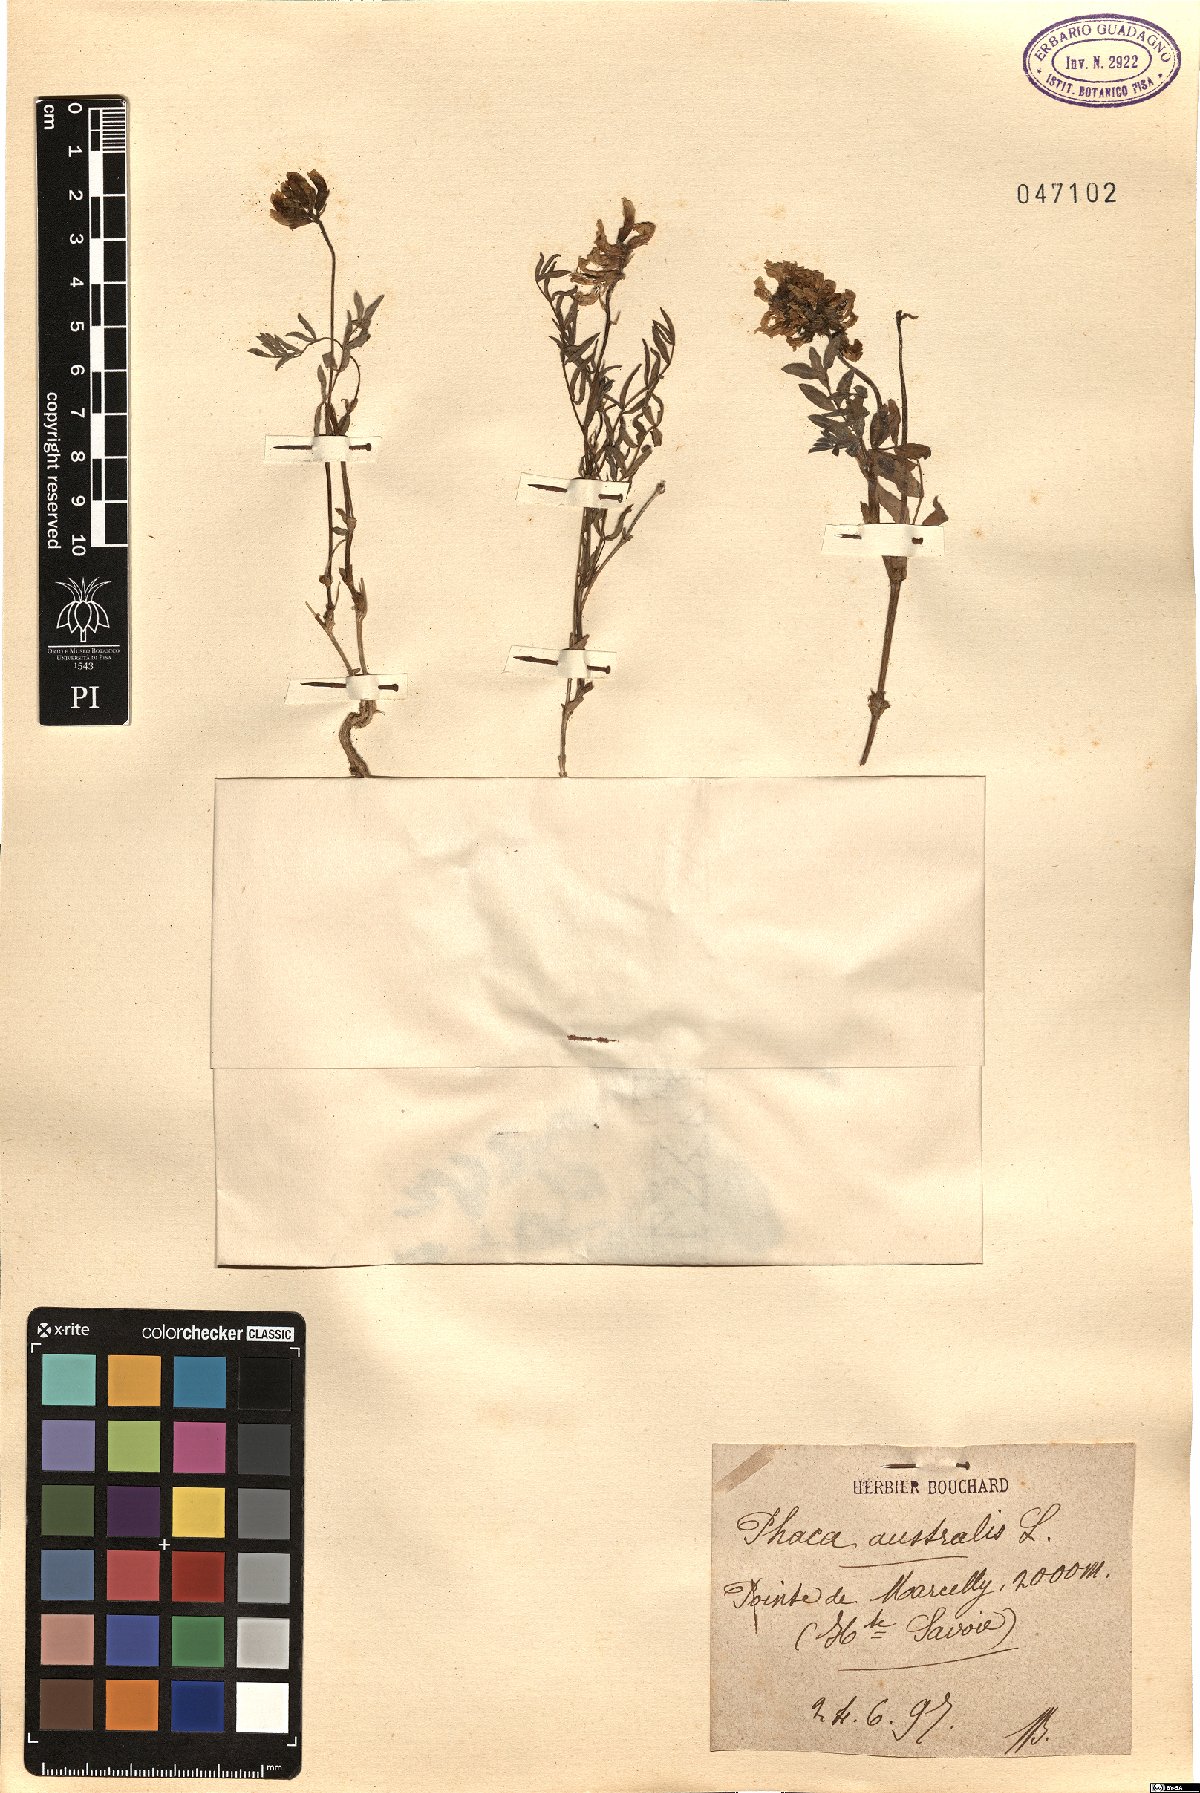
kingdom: Plantae
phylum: Tracheophyta
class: Magnoliopsida
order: Fabales
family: Fabaceae
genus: Astragalus
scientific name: Astragalus australis
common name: Indian milk-vetch
